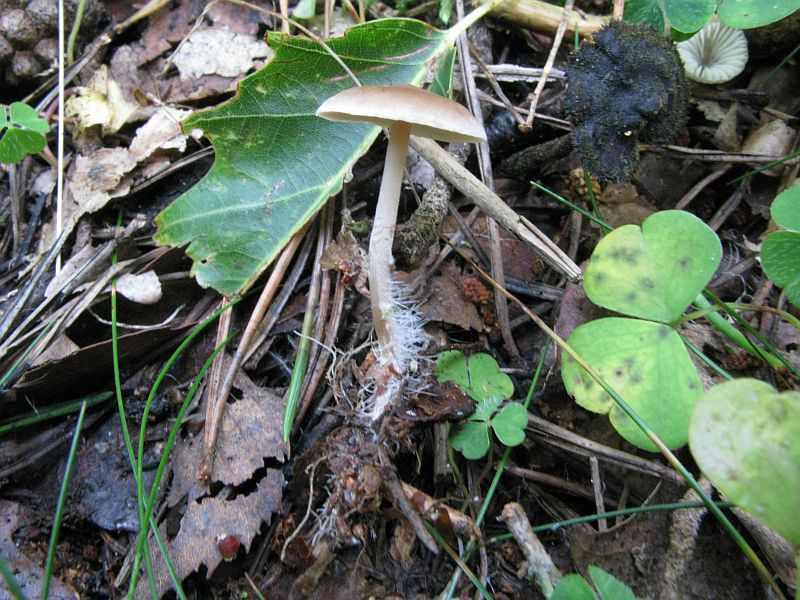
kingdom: Fungi
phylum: Basidiomycota
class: Agaricomycetes
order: Agaricales
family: Marasmiaceae
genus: Baeospora
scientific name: Baeospora myosura
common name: koglebruskhat
